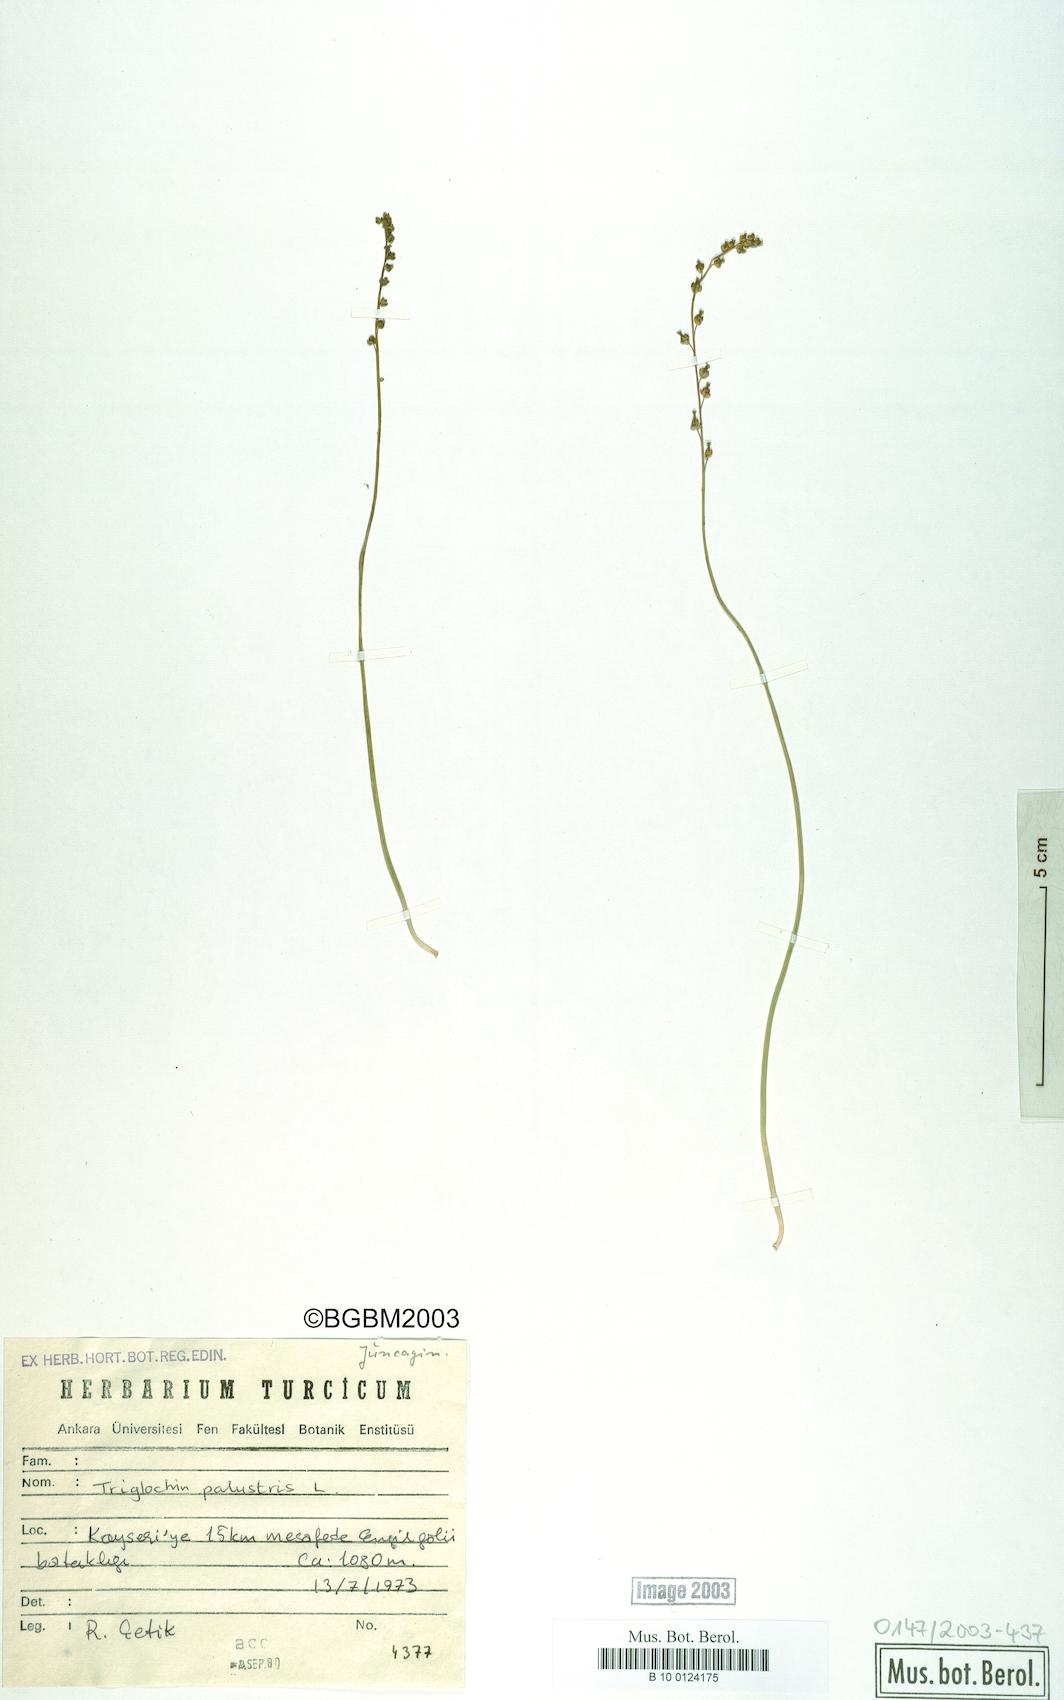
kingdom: Plantae
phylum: Tracheophyta
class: Liliopsida
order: Alismatales
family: Juncaginaceae
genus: Triglochin
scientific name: Triglochin palustris
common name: Marsh arrowgrass
